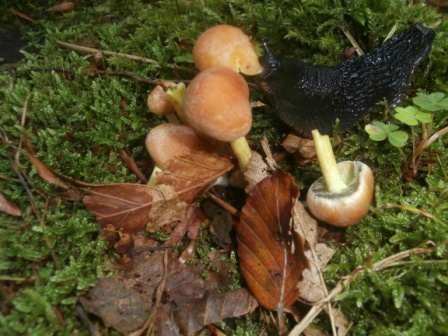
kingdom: Fungi
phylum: Basidiomycota
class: Agaricomycetes
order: Agaricales
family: Strophariaceae
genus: Hypholoma
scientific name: Hypholoma fasciculare
